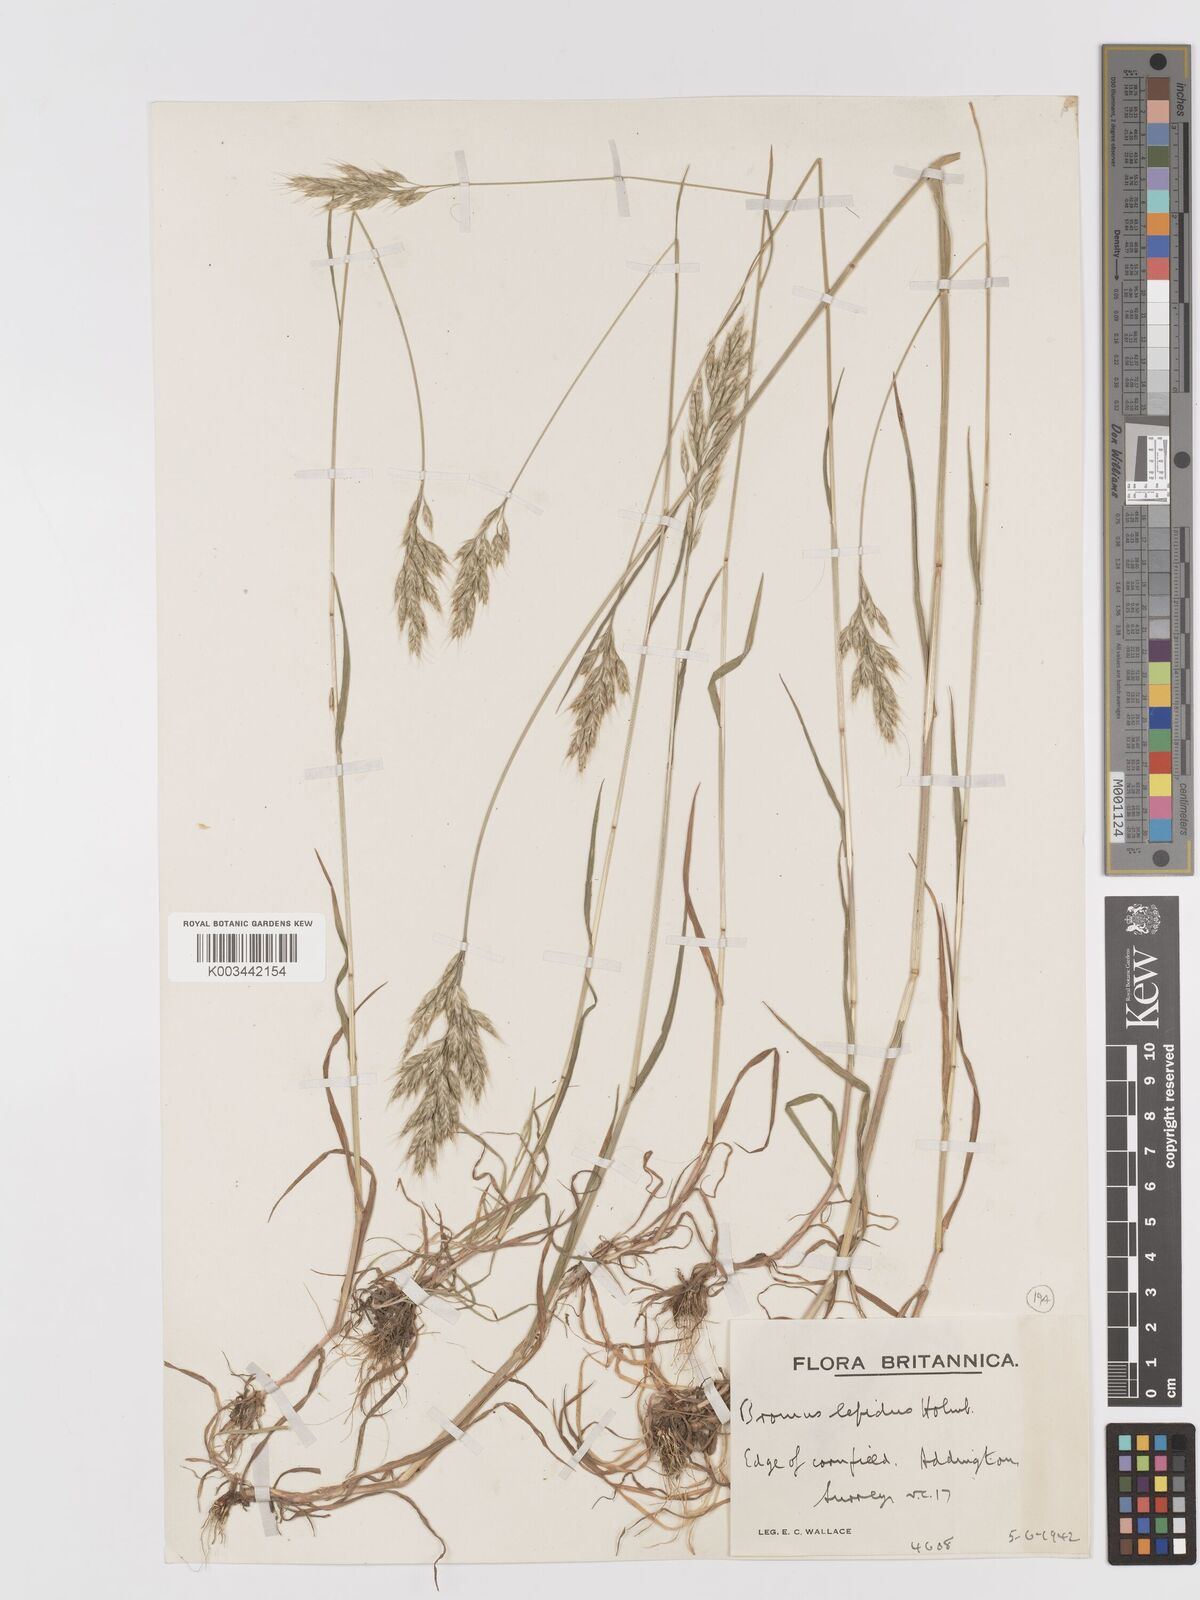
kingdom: Plantae
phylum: Tracheophyta
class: Liliopsida
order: Poales
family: Poaceae
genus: Bromus
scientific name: Bromus lepidus
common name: Slender soft-brome
